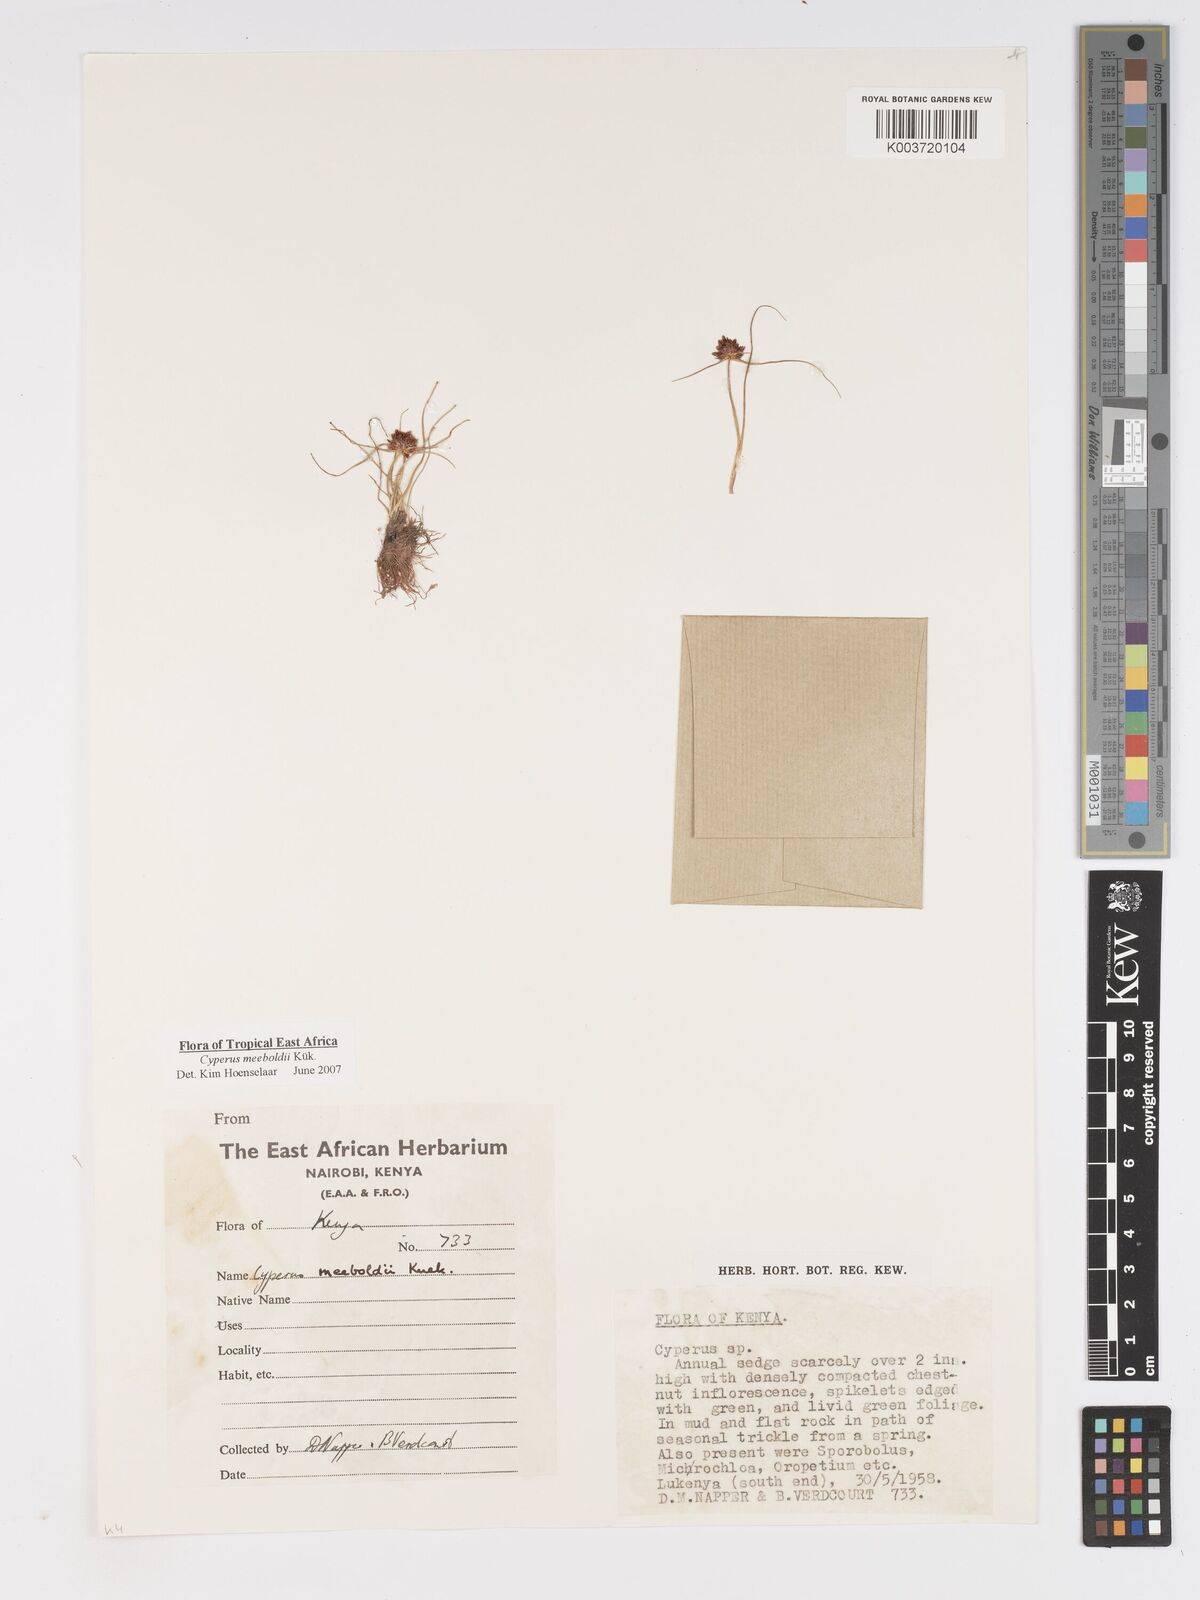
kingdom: Plantae
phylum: Tracheophyta
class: Liliopsida
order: Poales
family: Cyperaceae
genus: Cyperus
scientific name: Cyperus meeboldii
